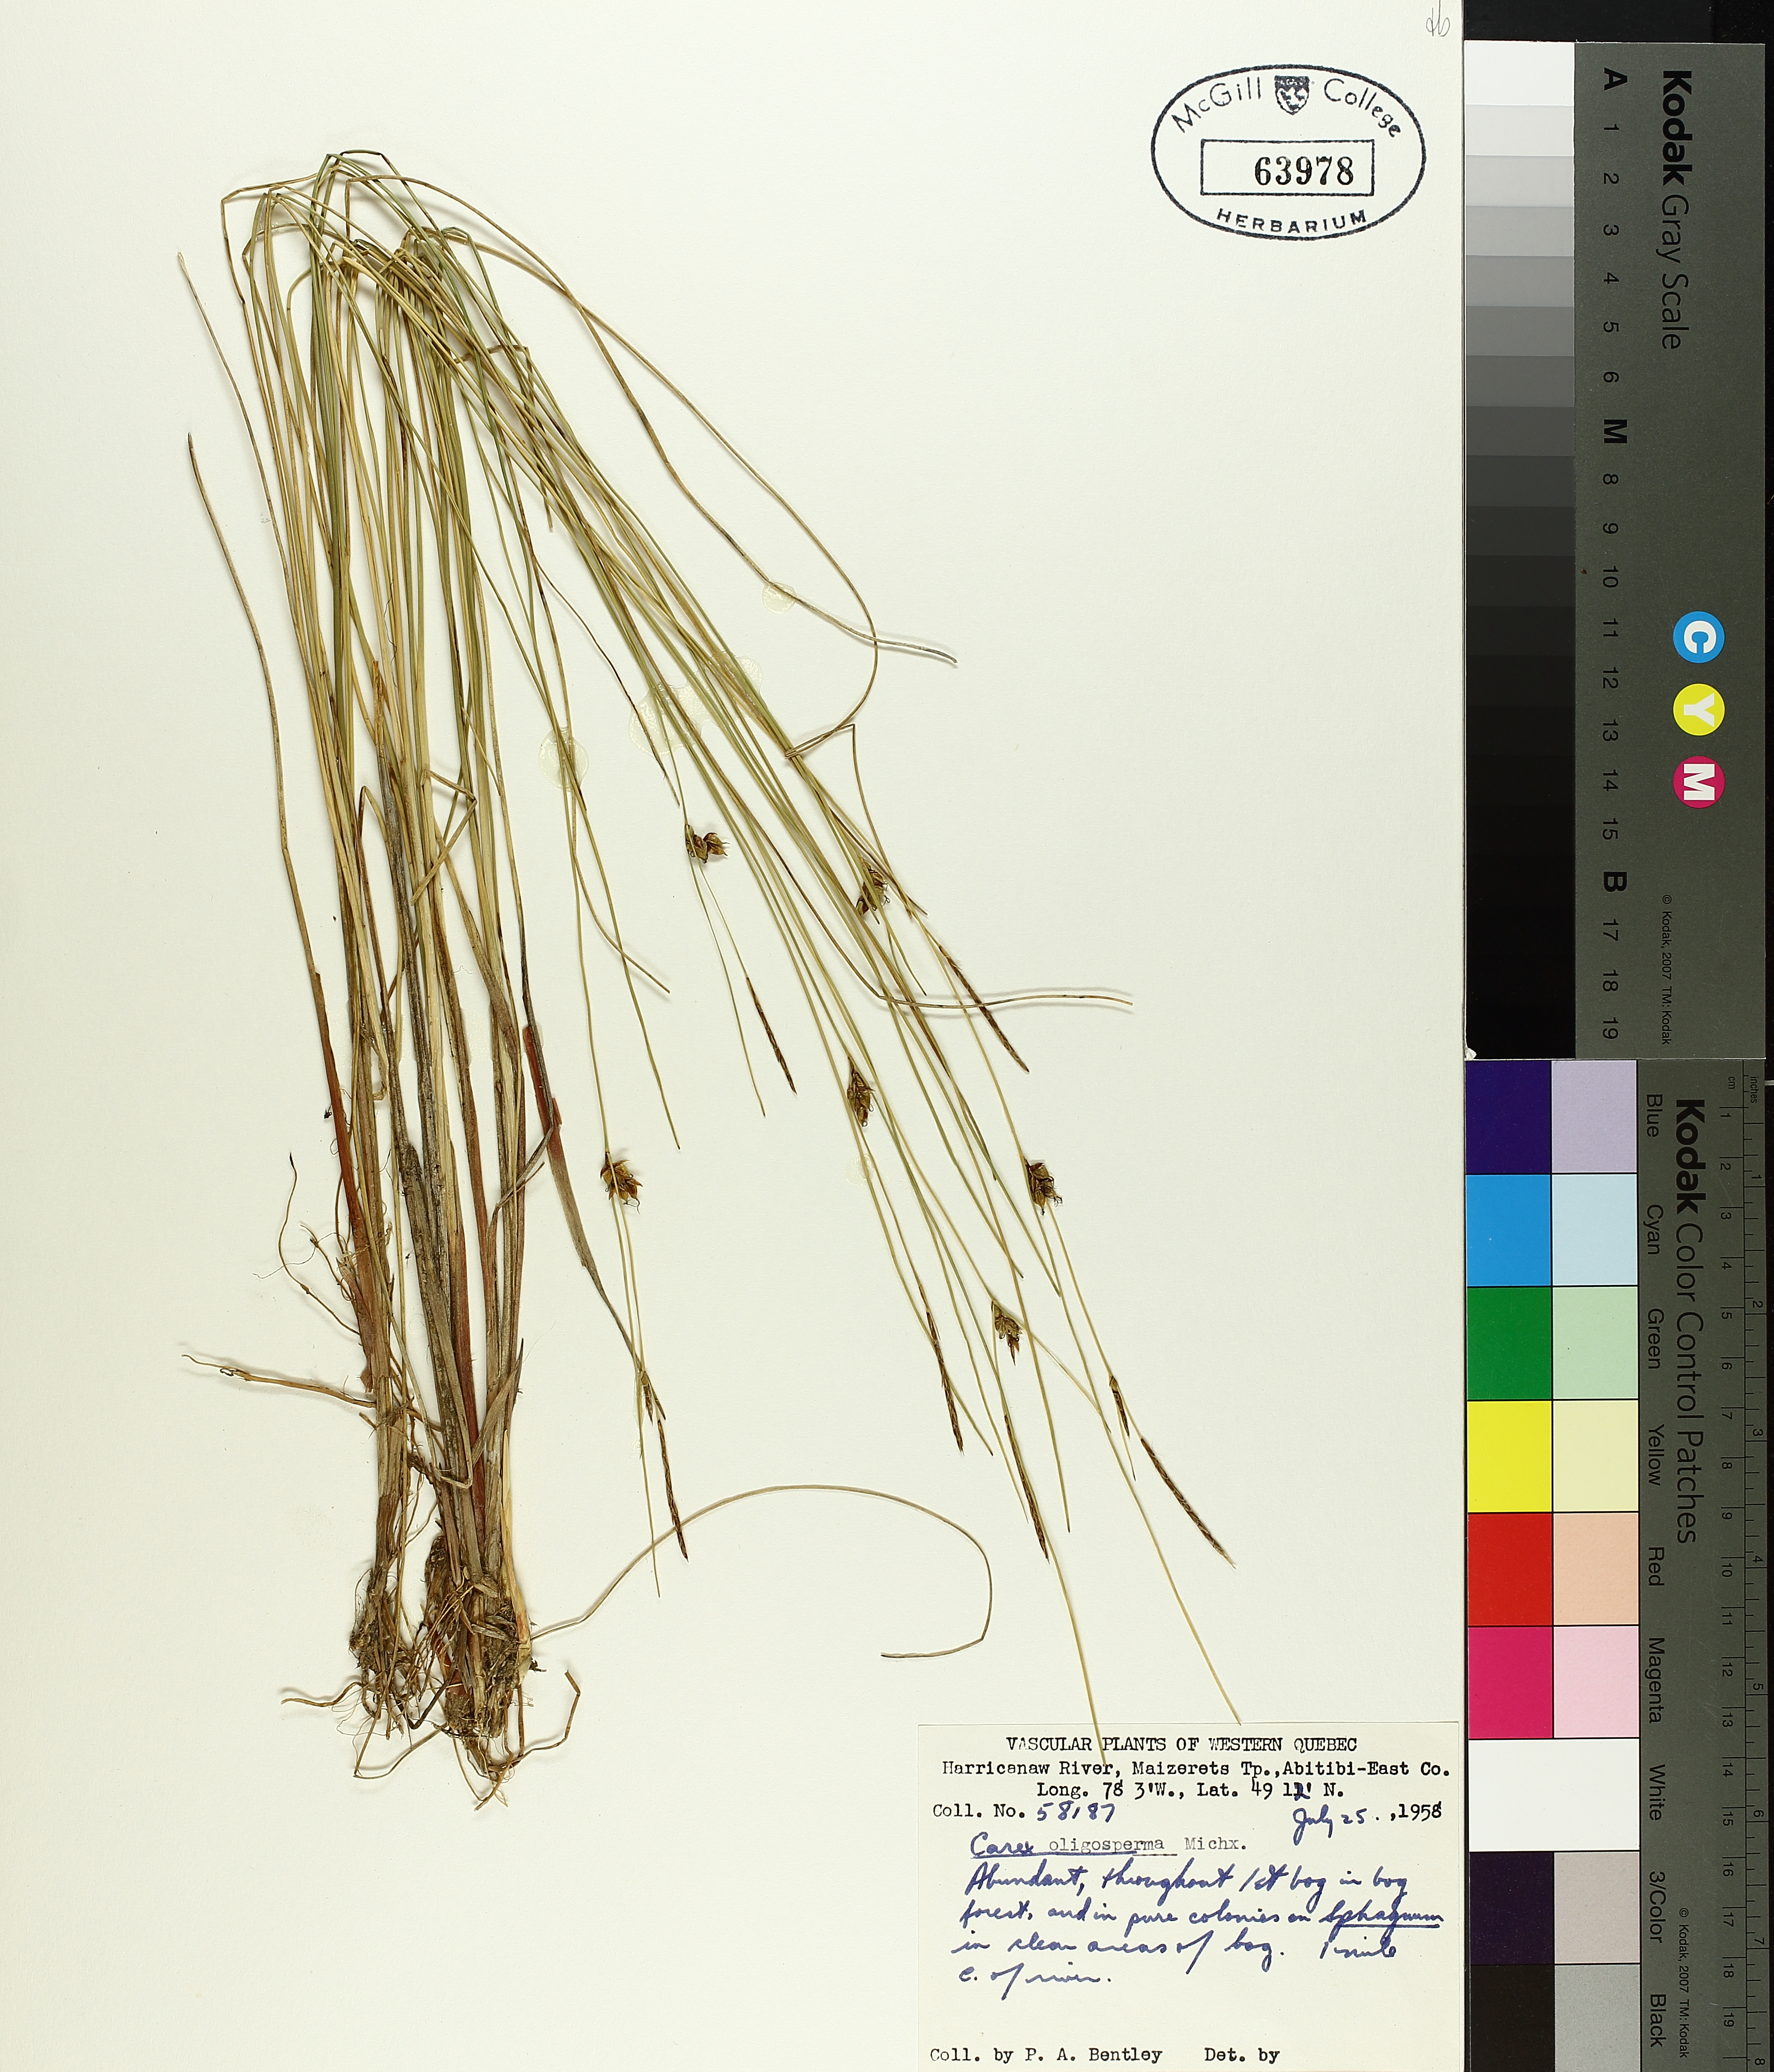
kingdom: Plantae
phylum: Tracheophyta
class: Liliopsida
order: Poales
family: Cyperaceae
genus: Carex
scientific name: Carex oligosperma
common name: Few-seed sedge
